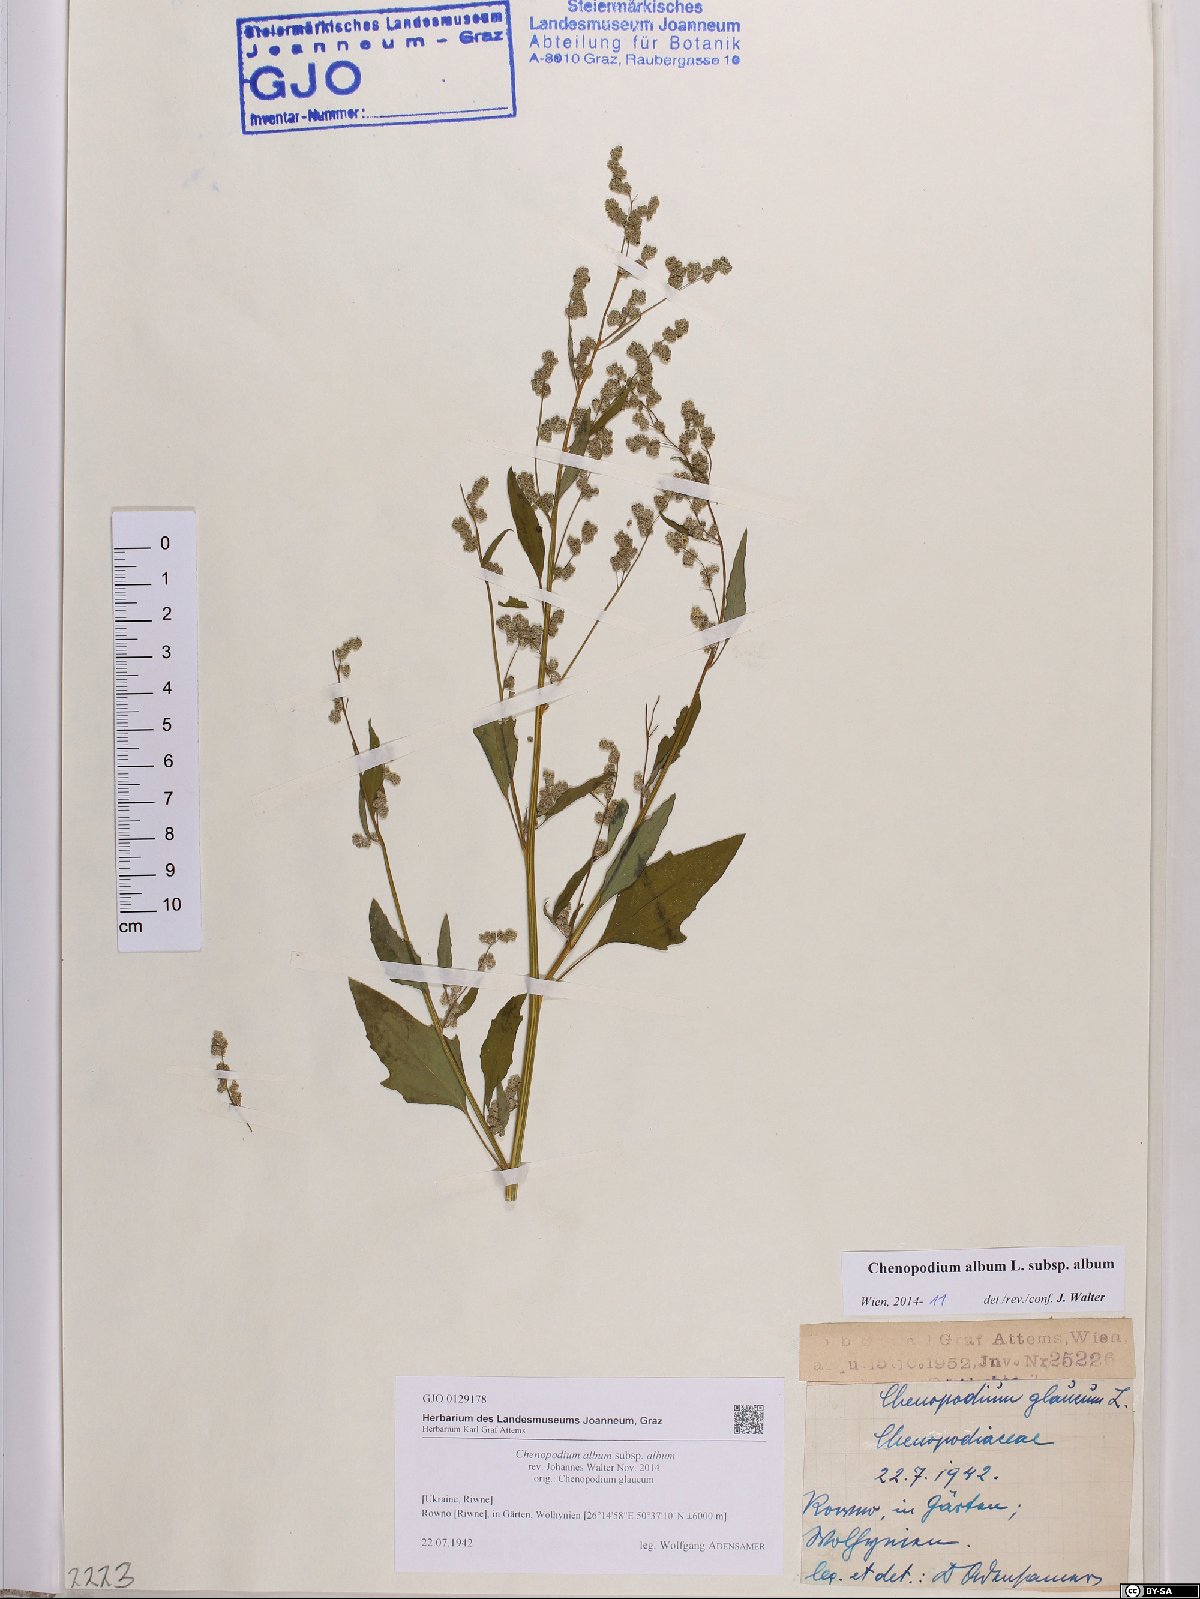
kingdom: Plantae
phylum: Tracheophyta
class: Magnoliopsida
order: Caryophyllales
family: Amaranthaceae
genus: Chenopodium
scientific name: Chenopodium album
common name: Fat-hen
